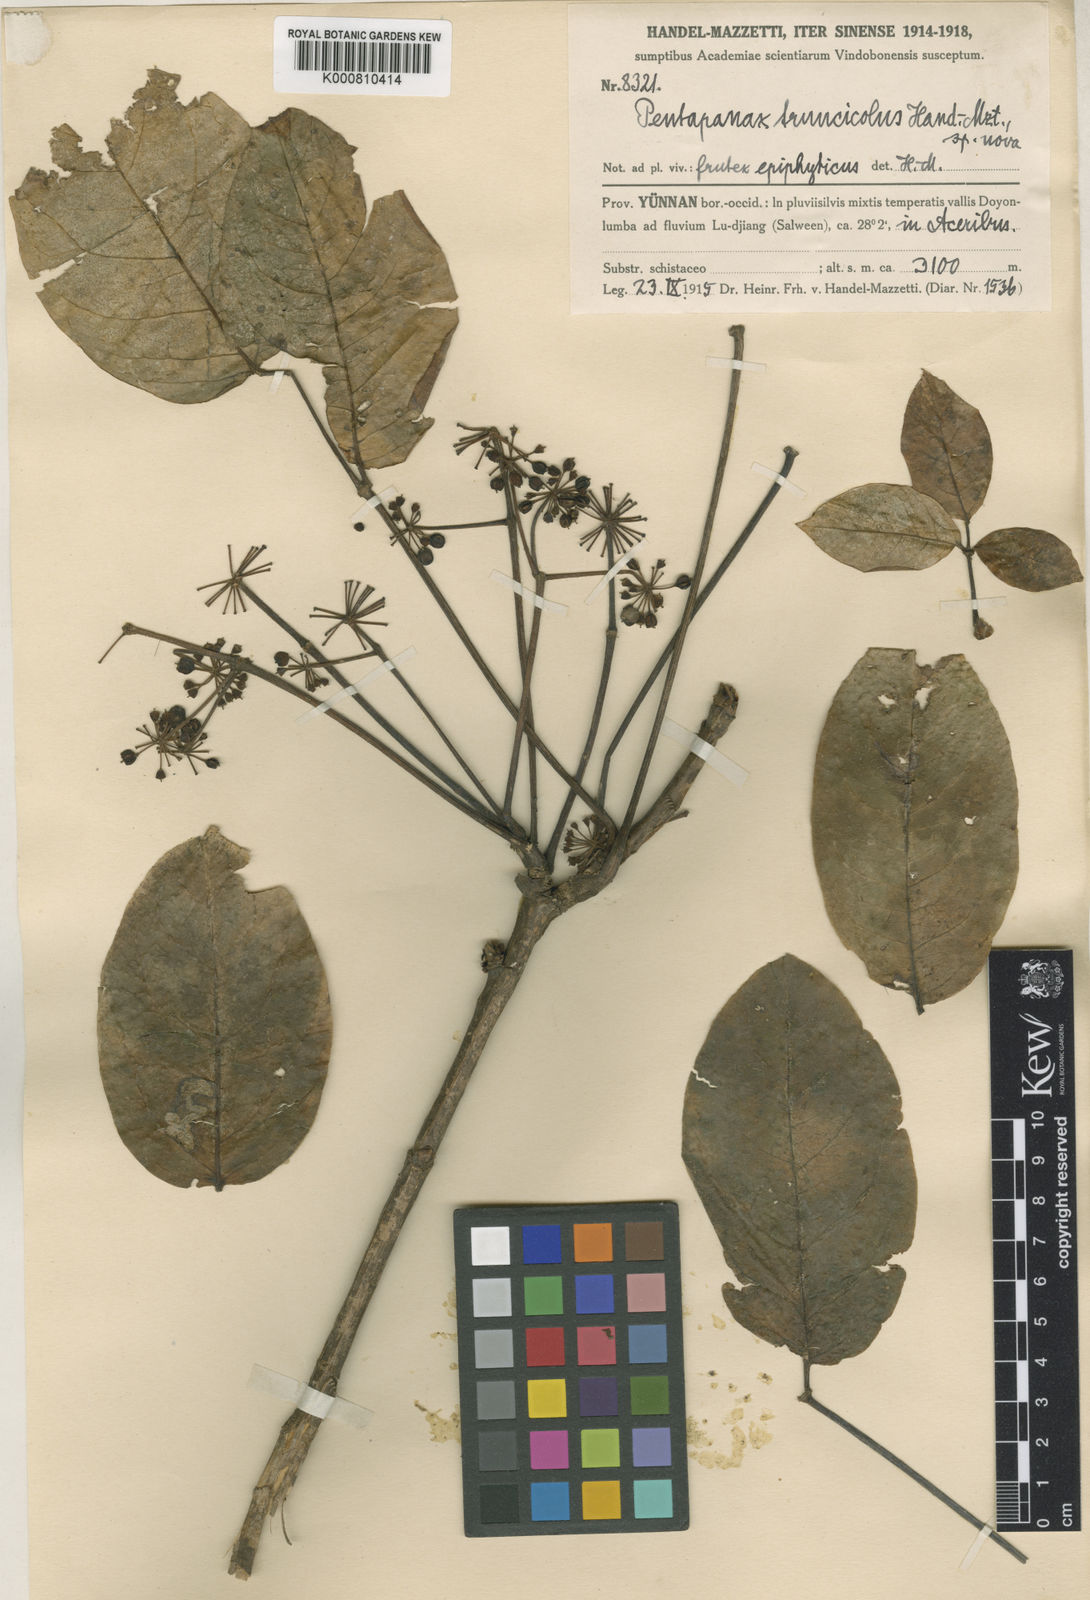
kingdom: Plantae
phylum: Tracheophyta
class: Magnoliopsida
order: Apiales
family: Araliaceae
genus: Aralia
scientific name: Aralia henryi
